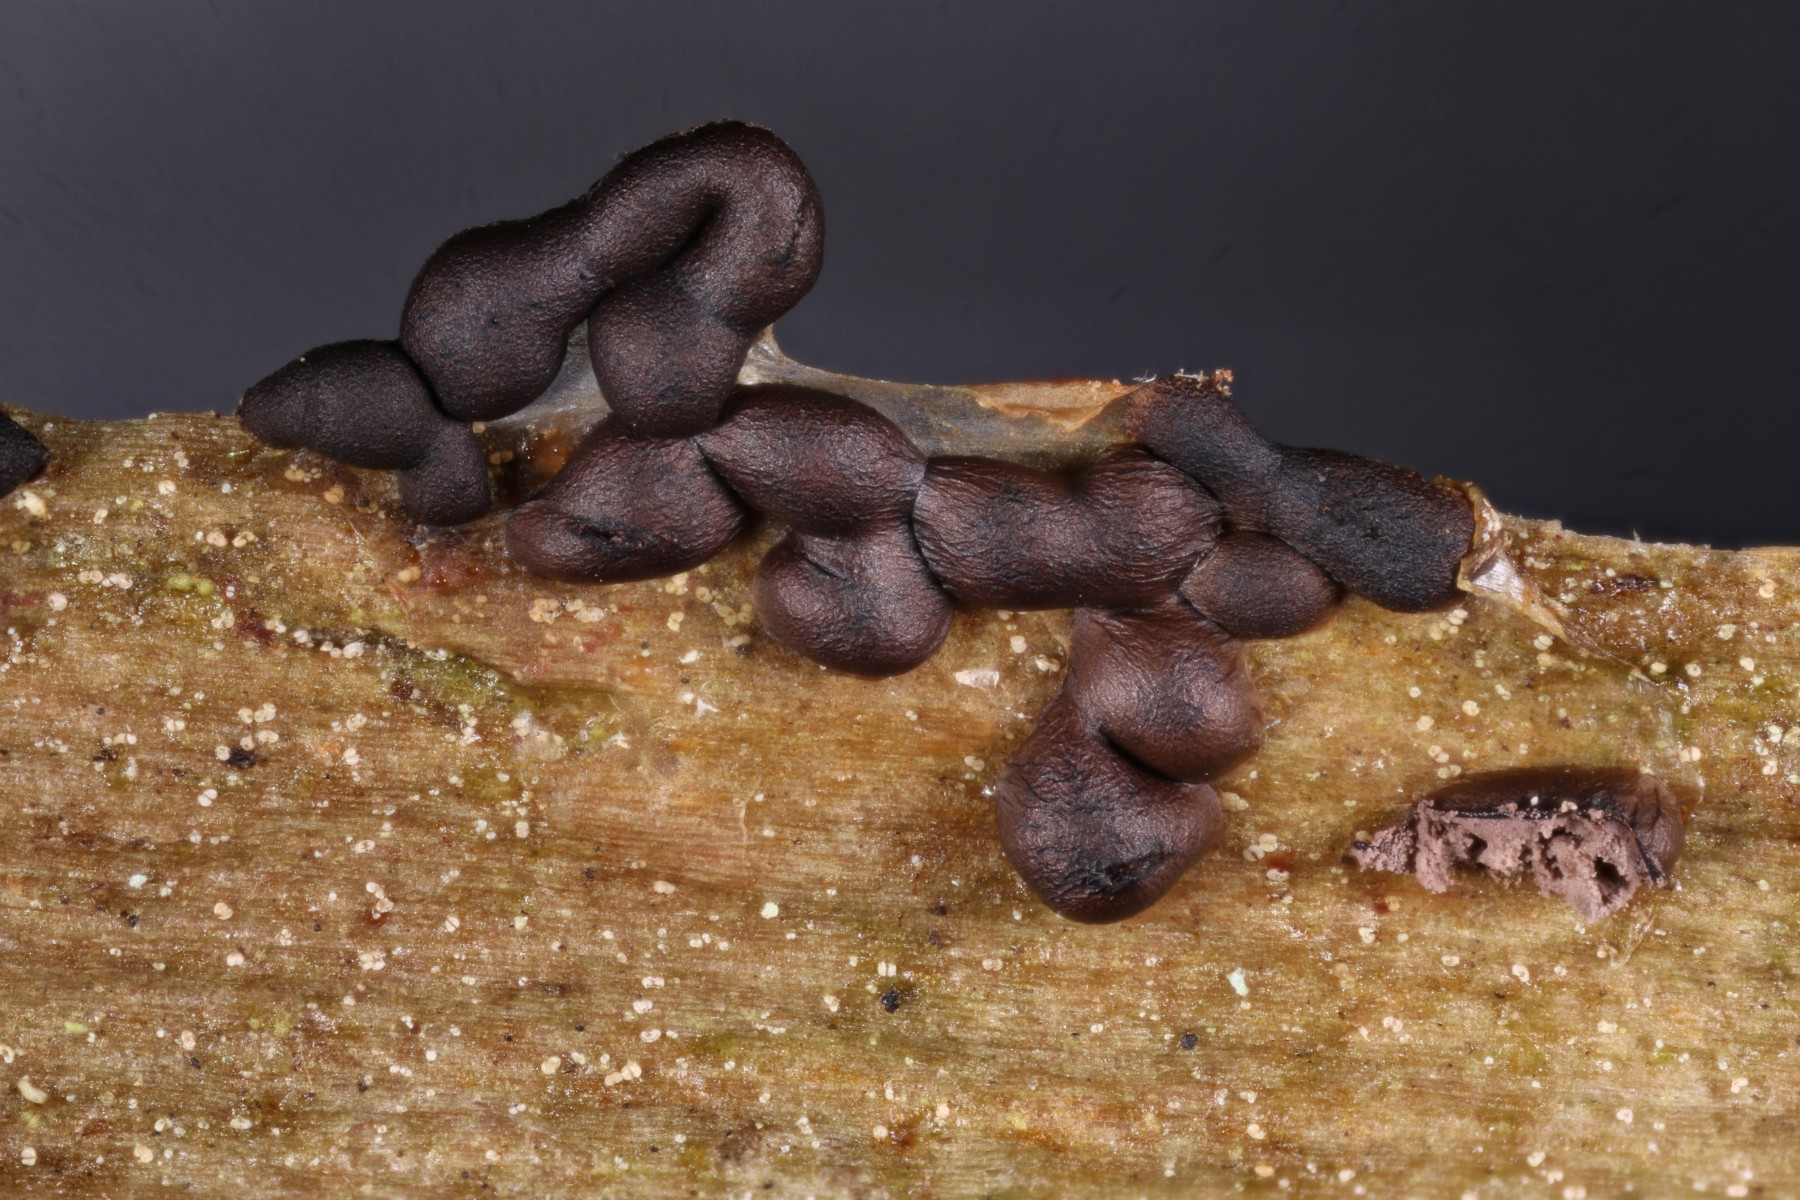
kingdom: Protozoa
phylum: Mycetozoa
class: Myxomycetes
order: Trichiales
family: Dianemataceae
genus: Dianema
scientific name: Dianema corticatum
